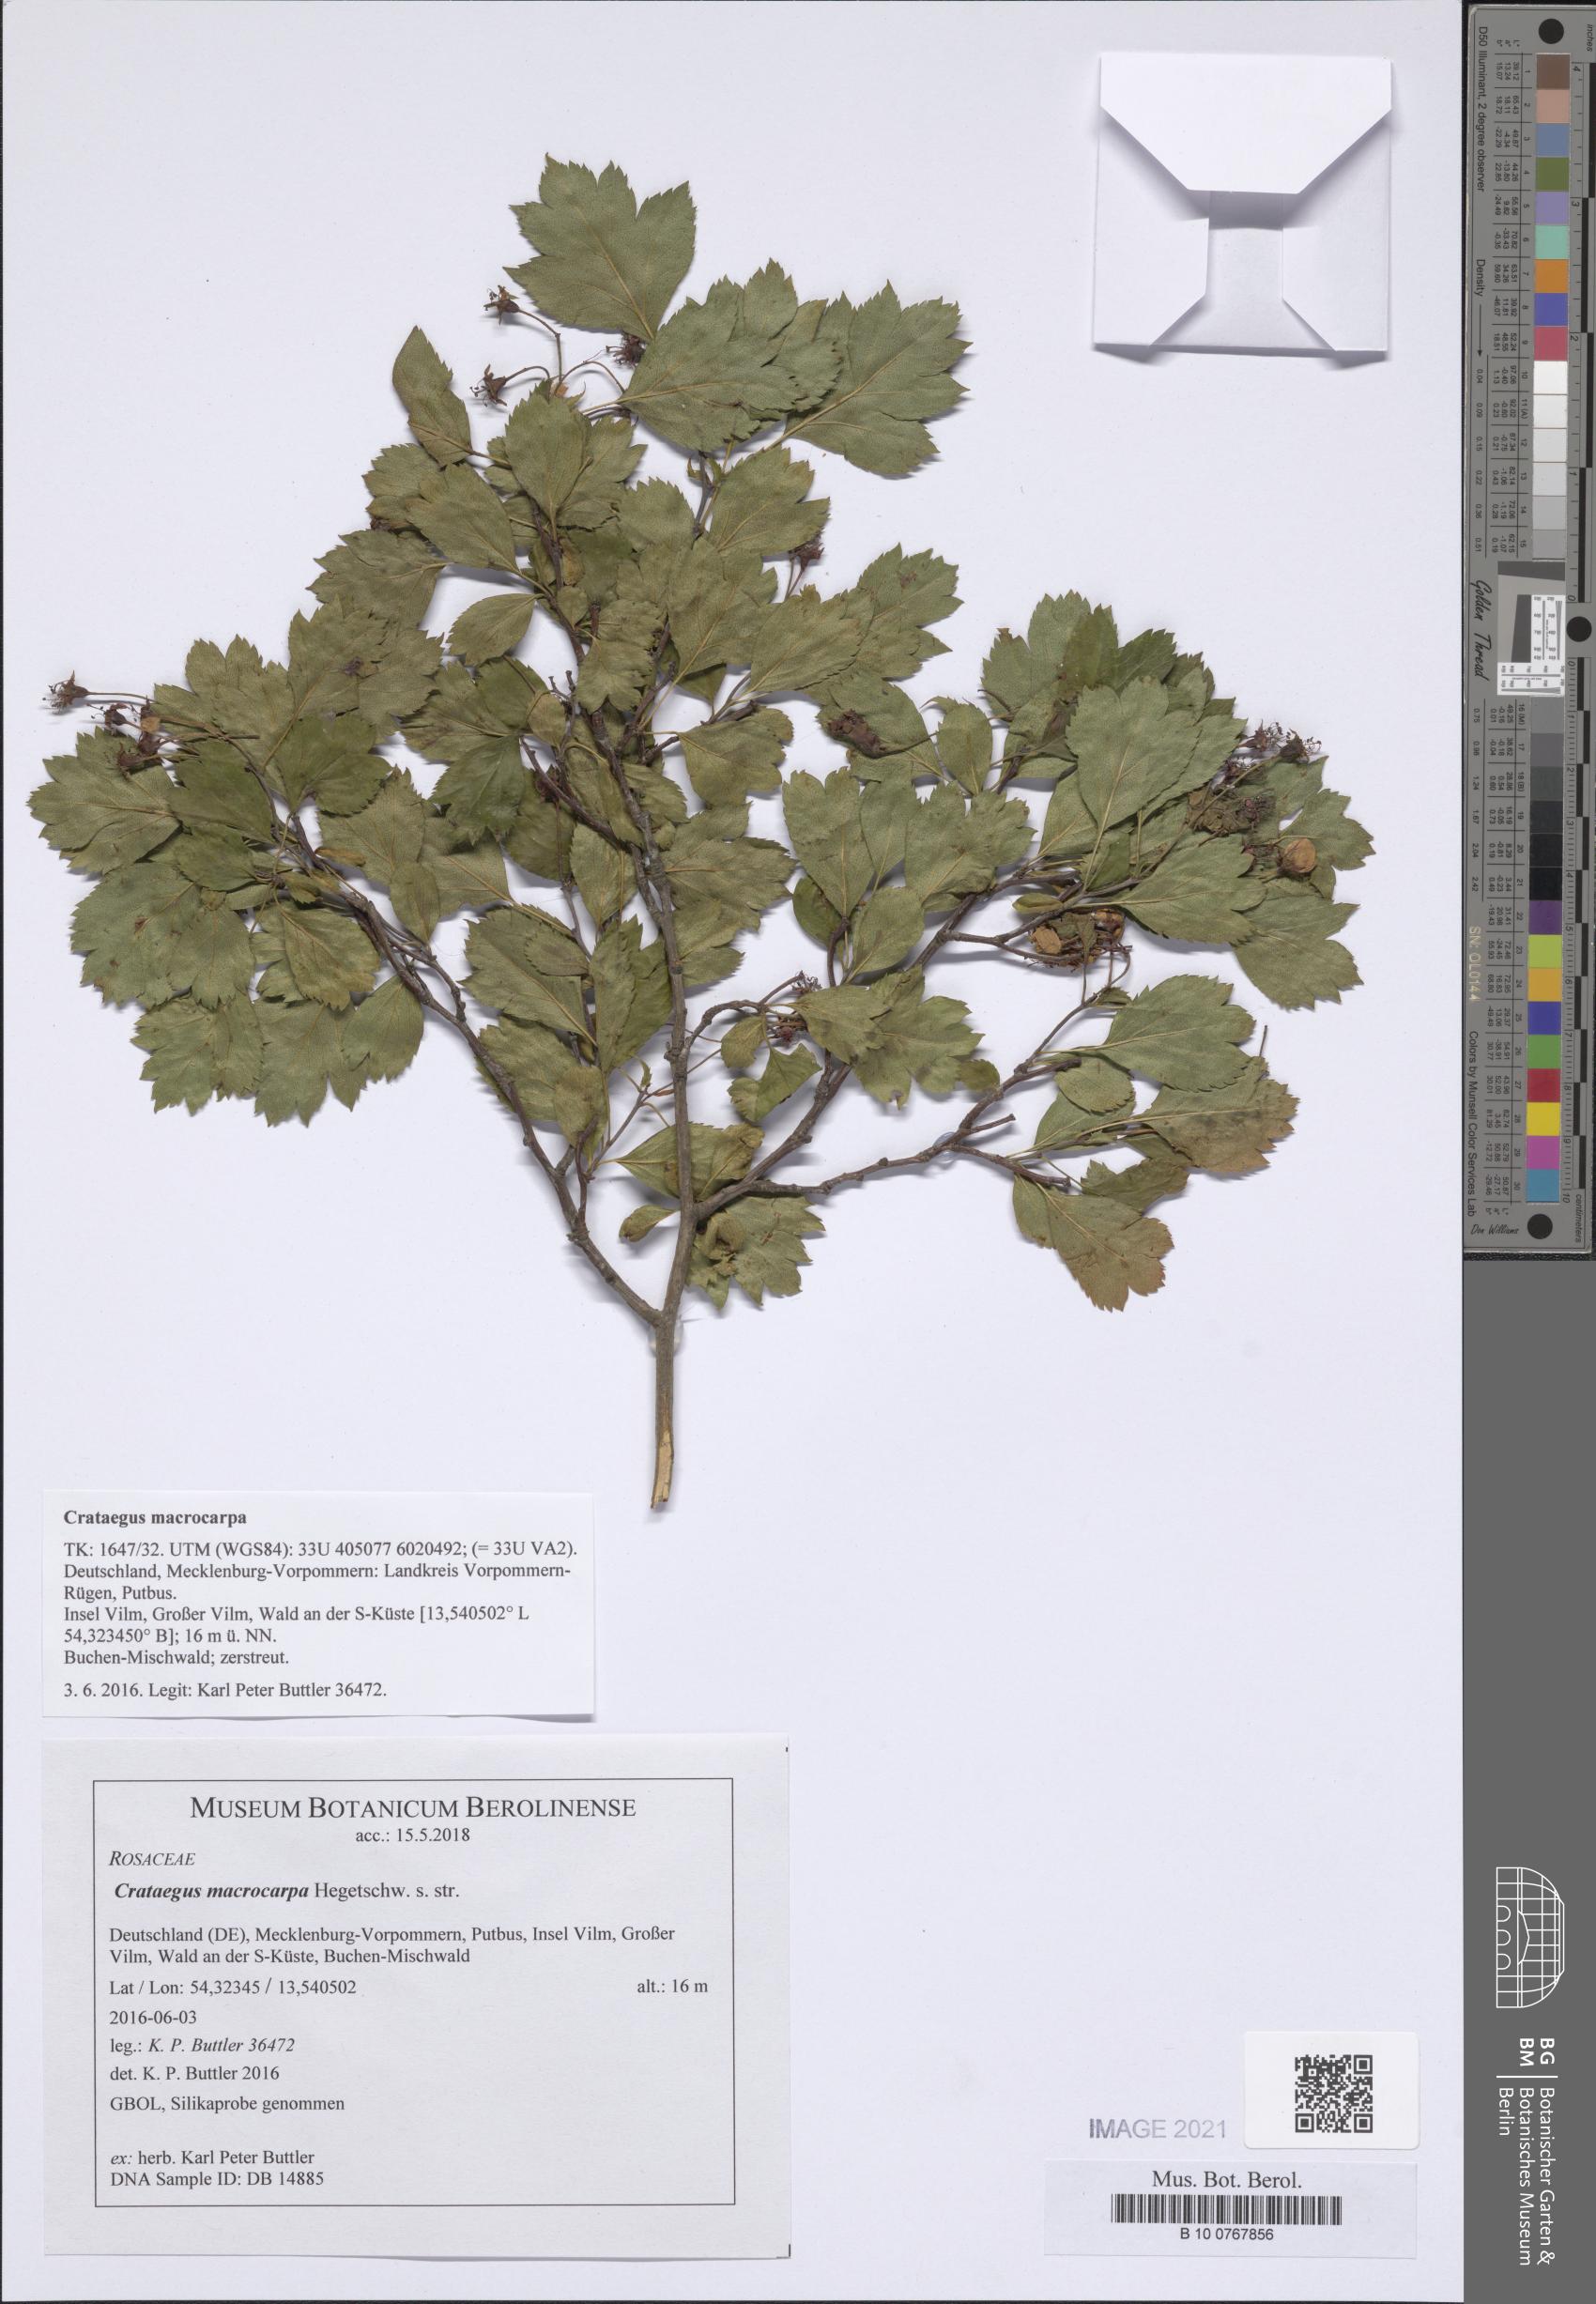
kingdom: Plantae
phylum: Tracheophyta
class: Magnoliopsida
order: Rosales
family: Rosaceae
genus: Crataegus
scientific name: Crataegus macrocarpa
